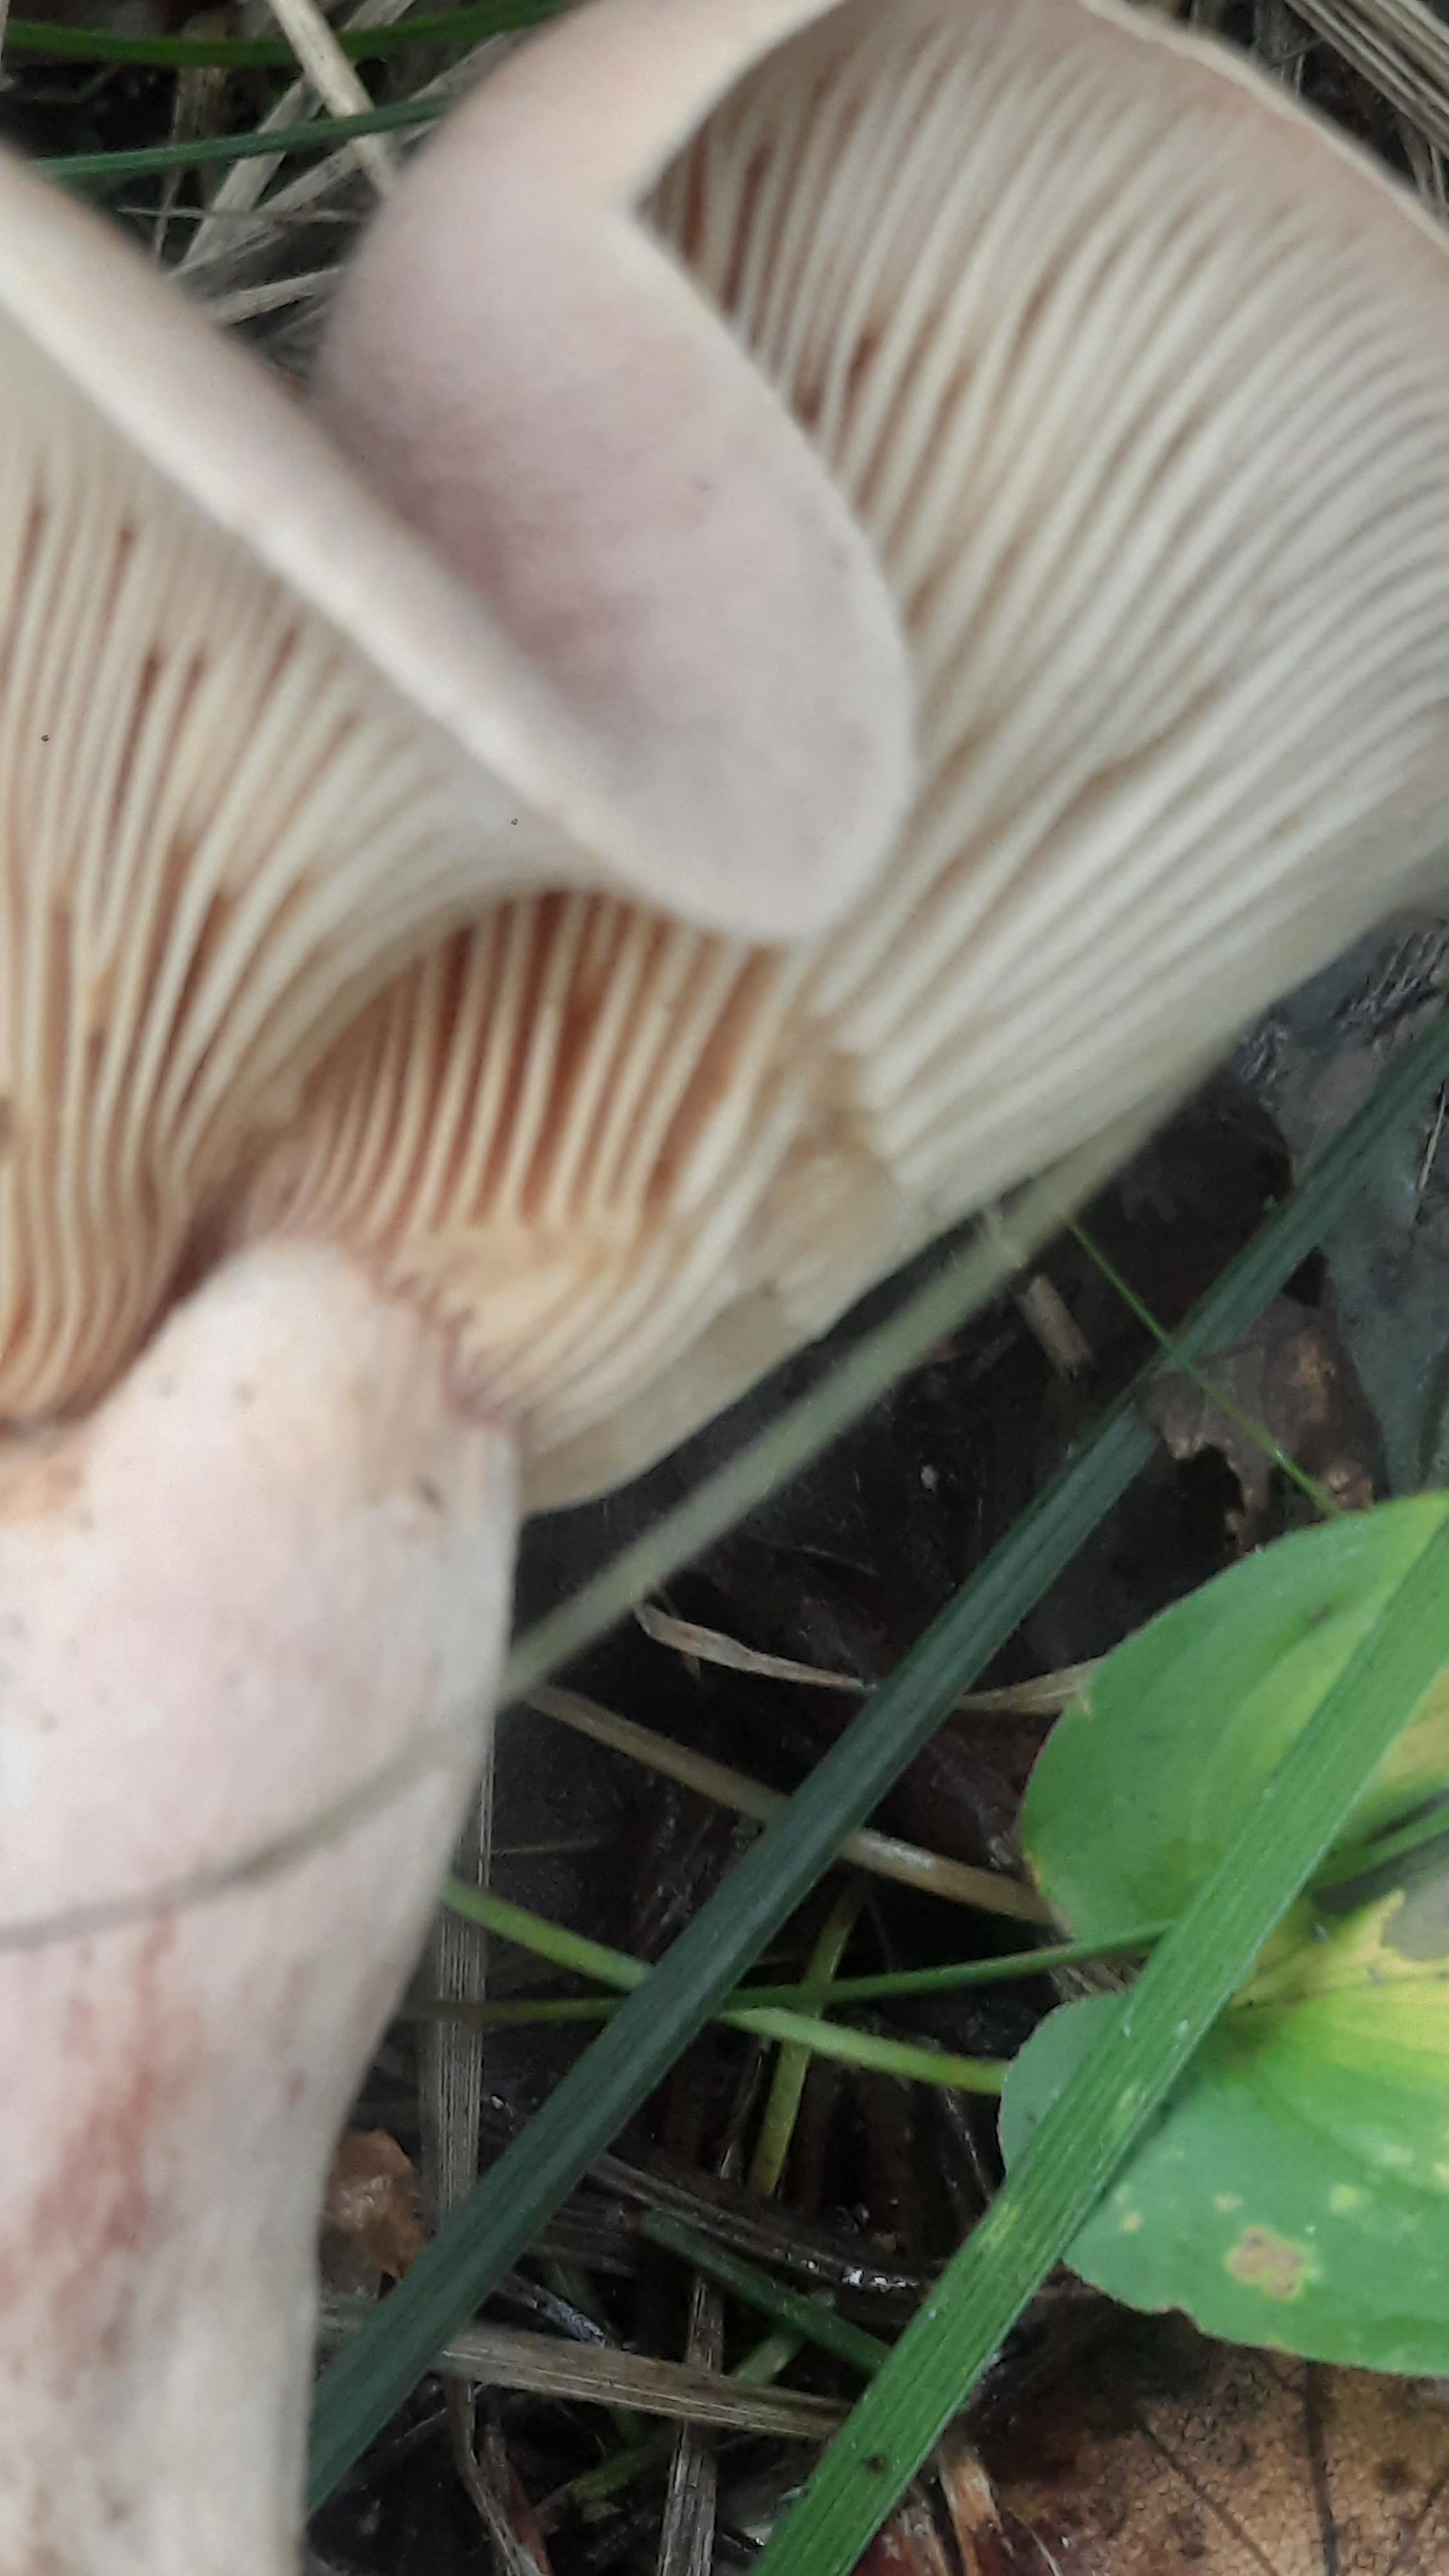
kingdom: Fungi
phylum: Basidiomycota
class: Agaricomycetes
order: Russulales
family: Russulaceae
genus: Lactarius
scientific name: Lactarius helvus
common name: mose-mælkehat
